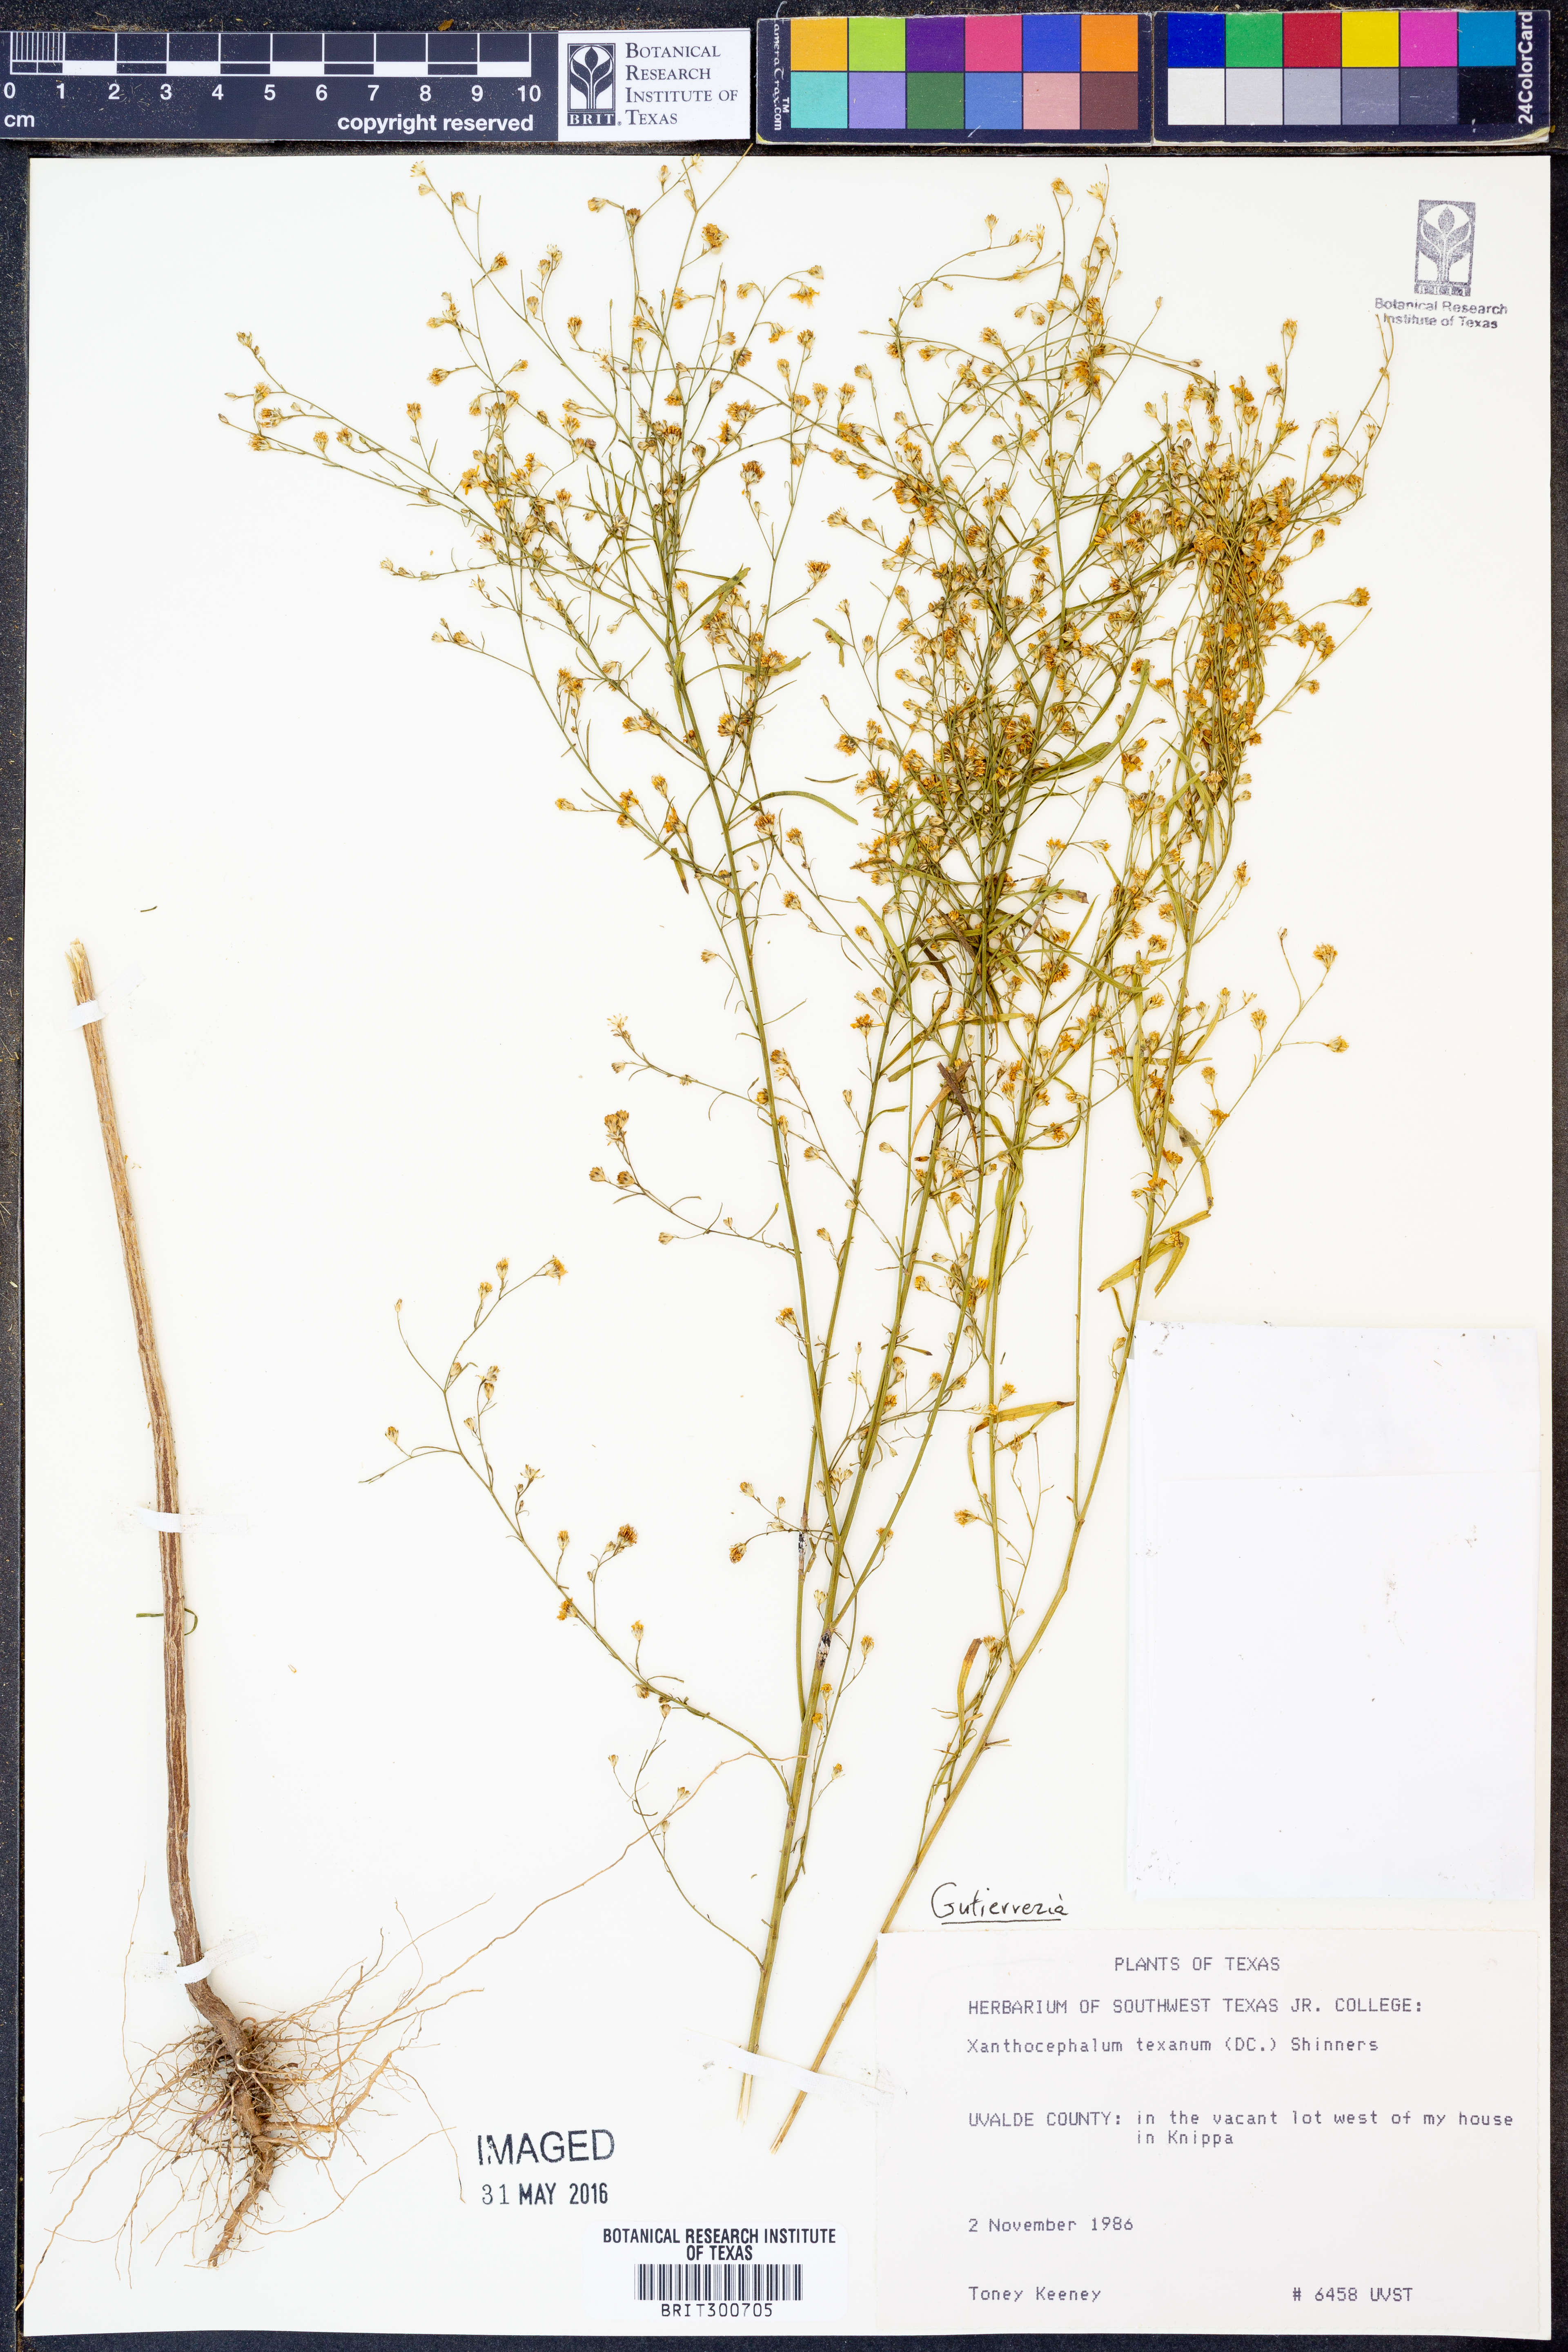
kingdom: Plantae
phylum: Tracheophyta
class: Magnoliopsida
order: Asterales
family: Asteraceae
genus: Gutierrezia
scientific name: Gutierrezia texana
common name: Texas snakeweed
